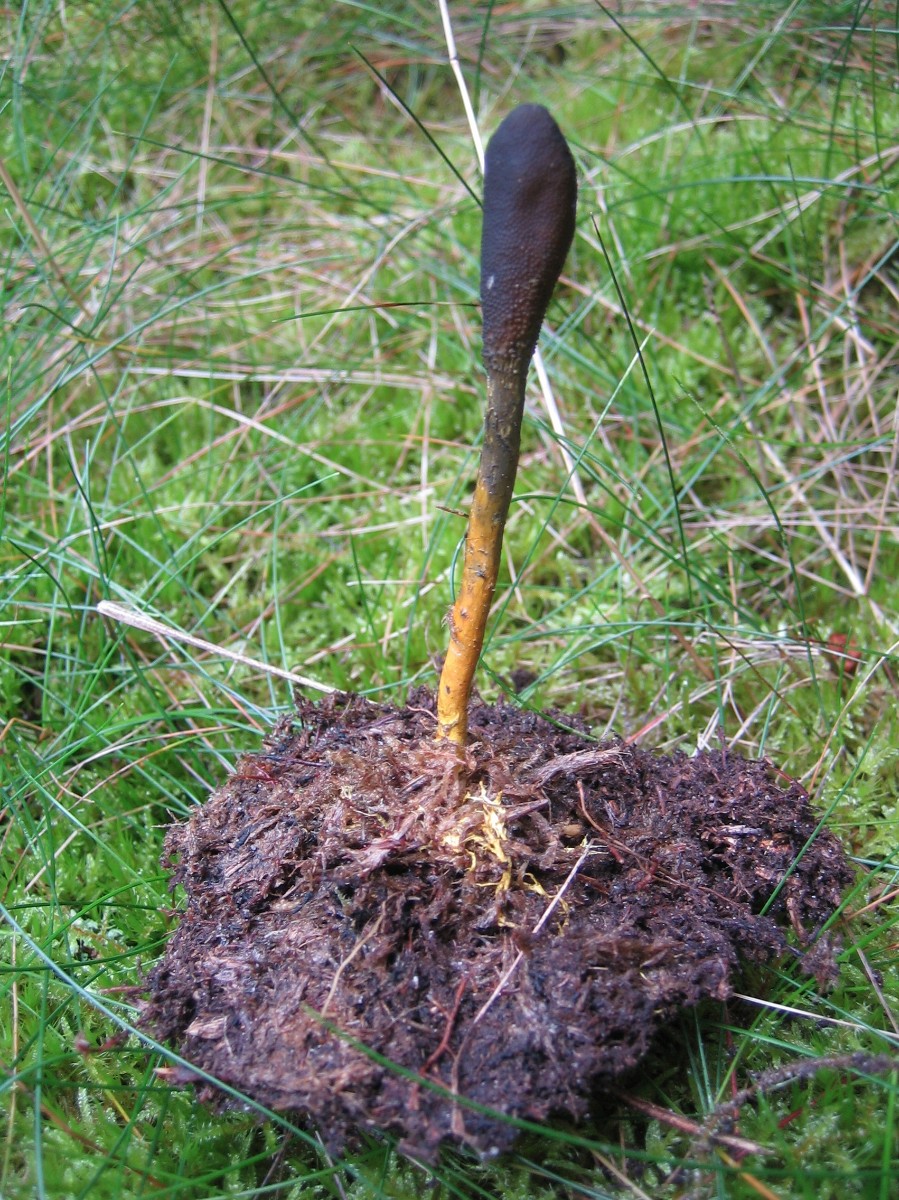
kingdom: Fungi
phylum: Ascomycota
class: Sordariomycetes
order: Hypocreales
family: Ophiocordycipitaceae
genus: Tolypocladium
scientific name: Tolypocladium ophioglossoides
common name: slank snyltekølle
